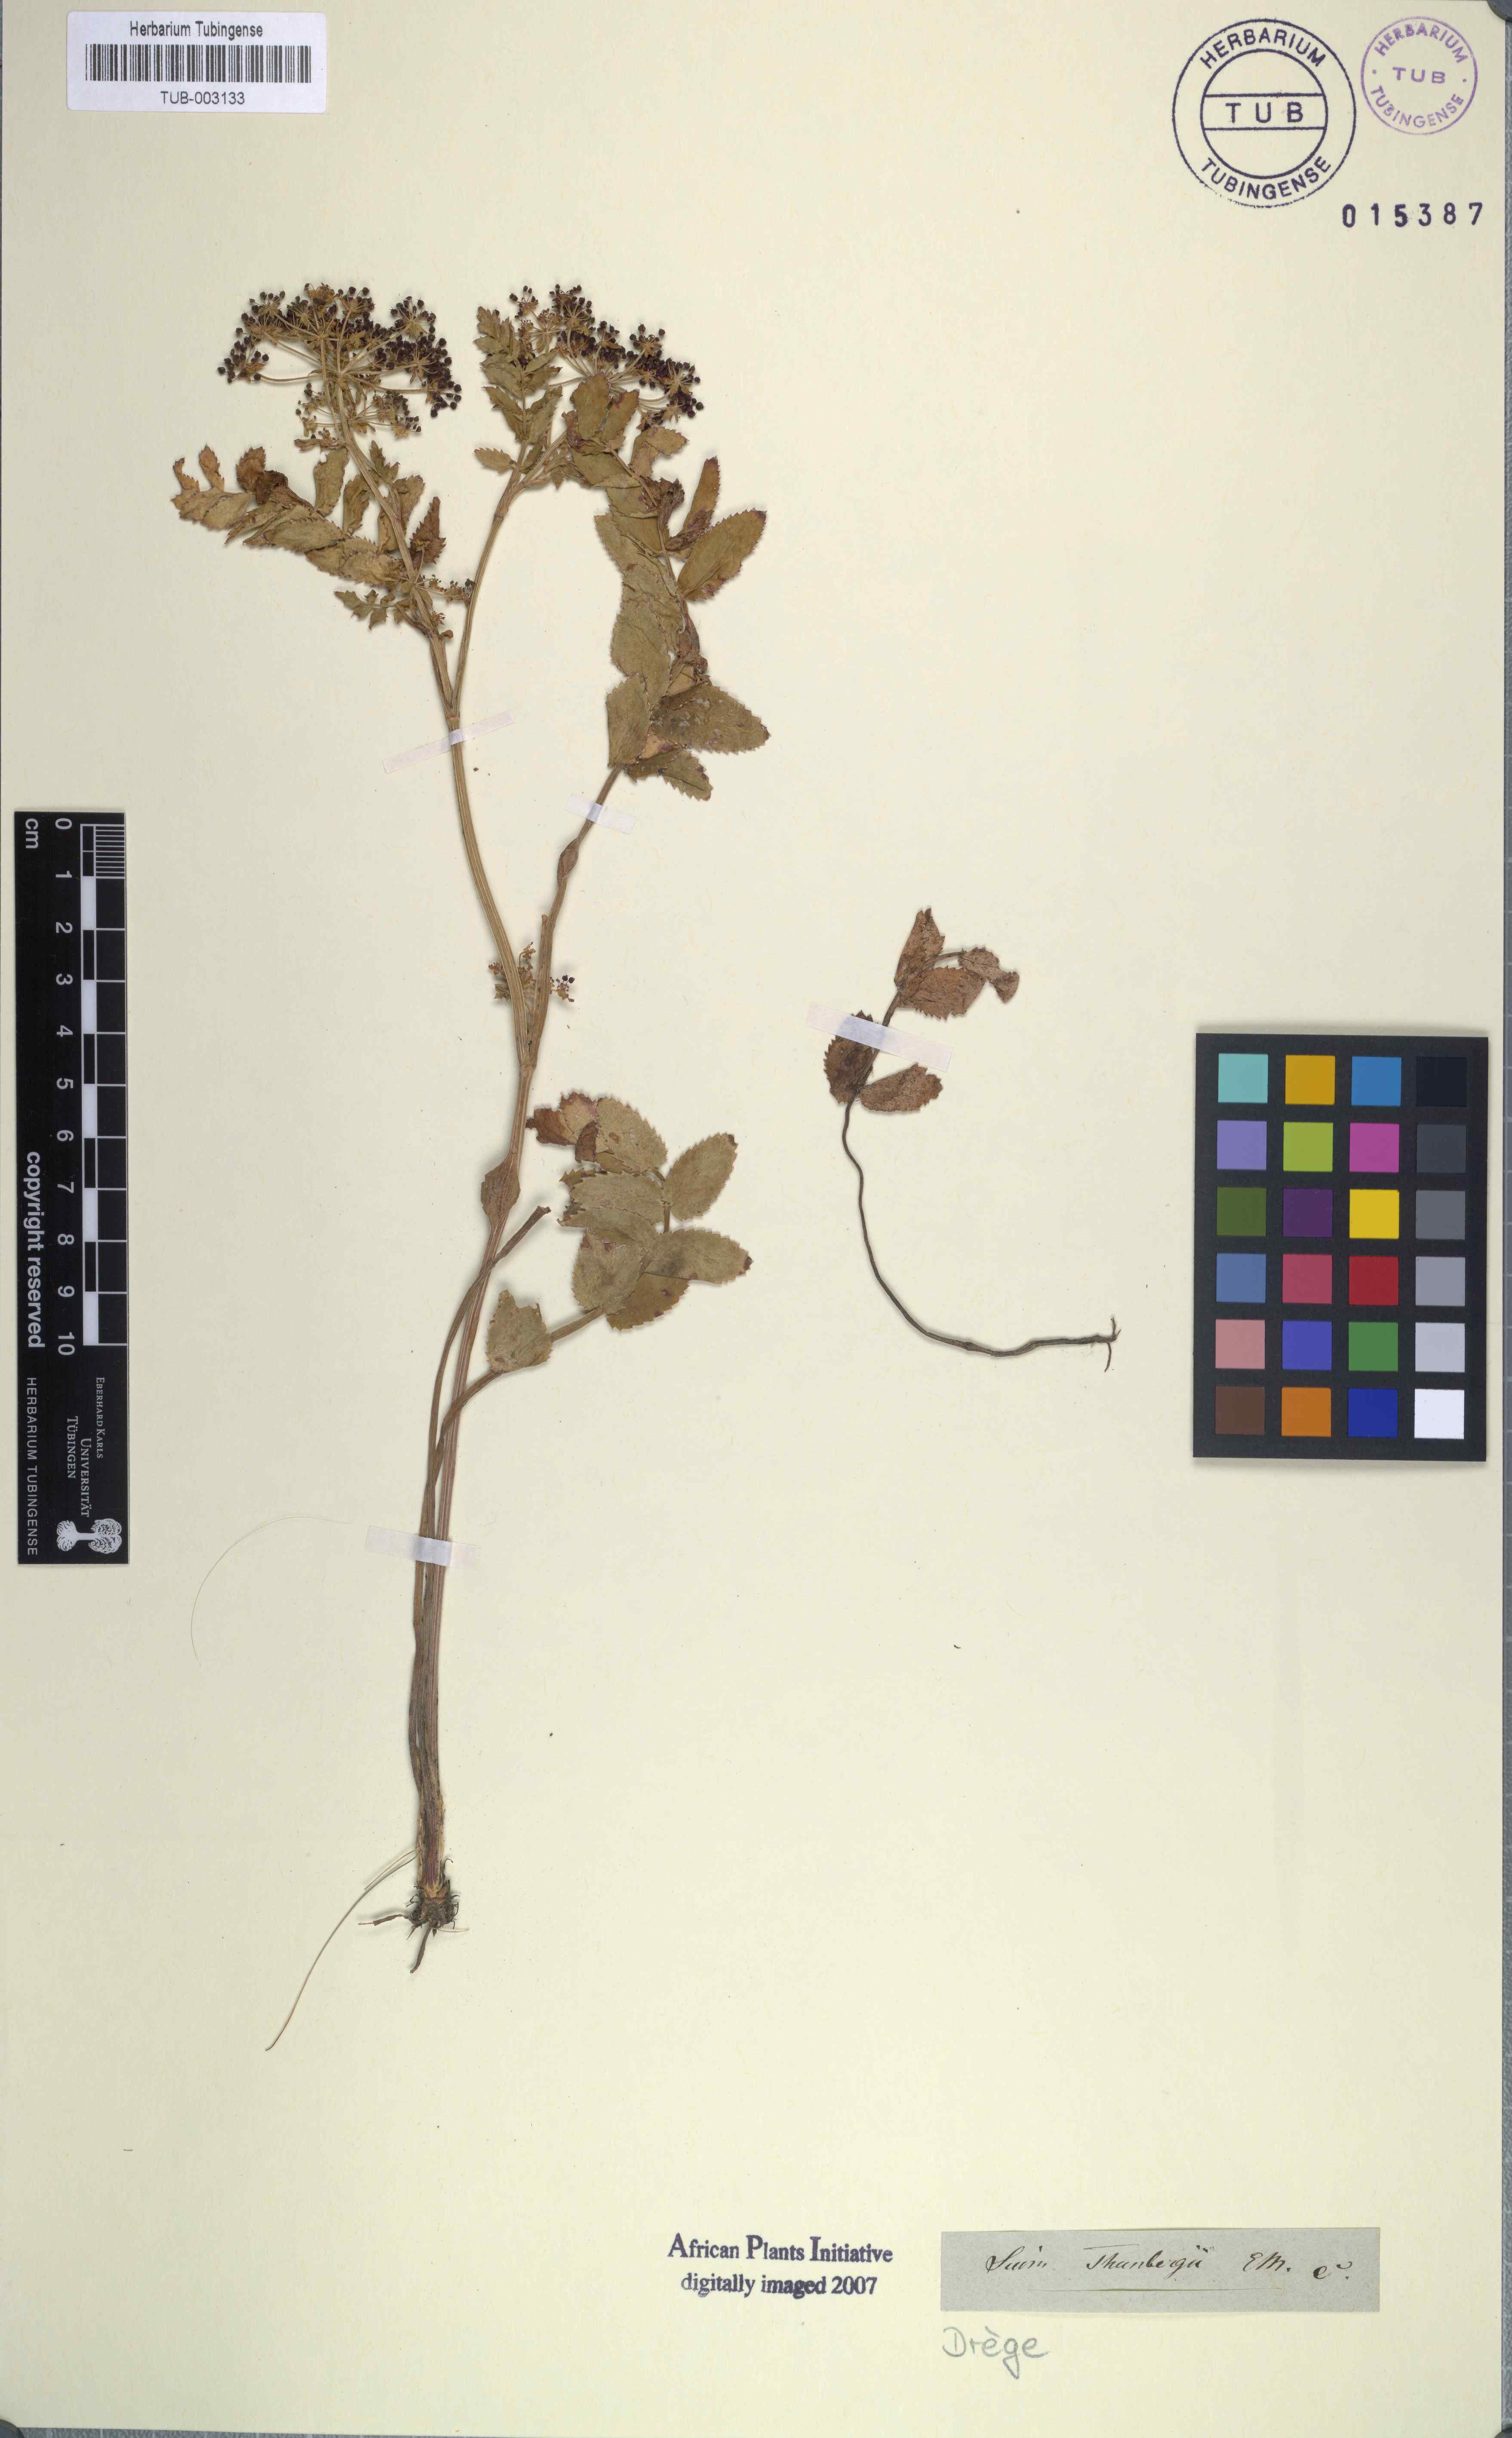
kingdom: Plantae
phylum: Tracheophyta
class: Magnoliopsida
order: Apiales
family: Apiaceae
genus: Berula
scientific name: Berula thunbergii
